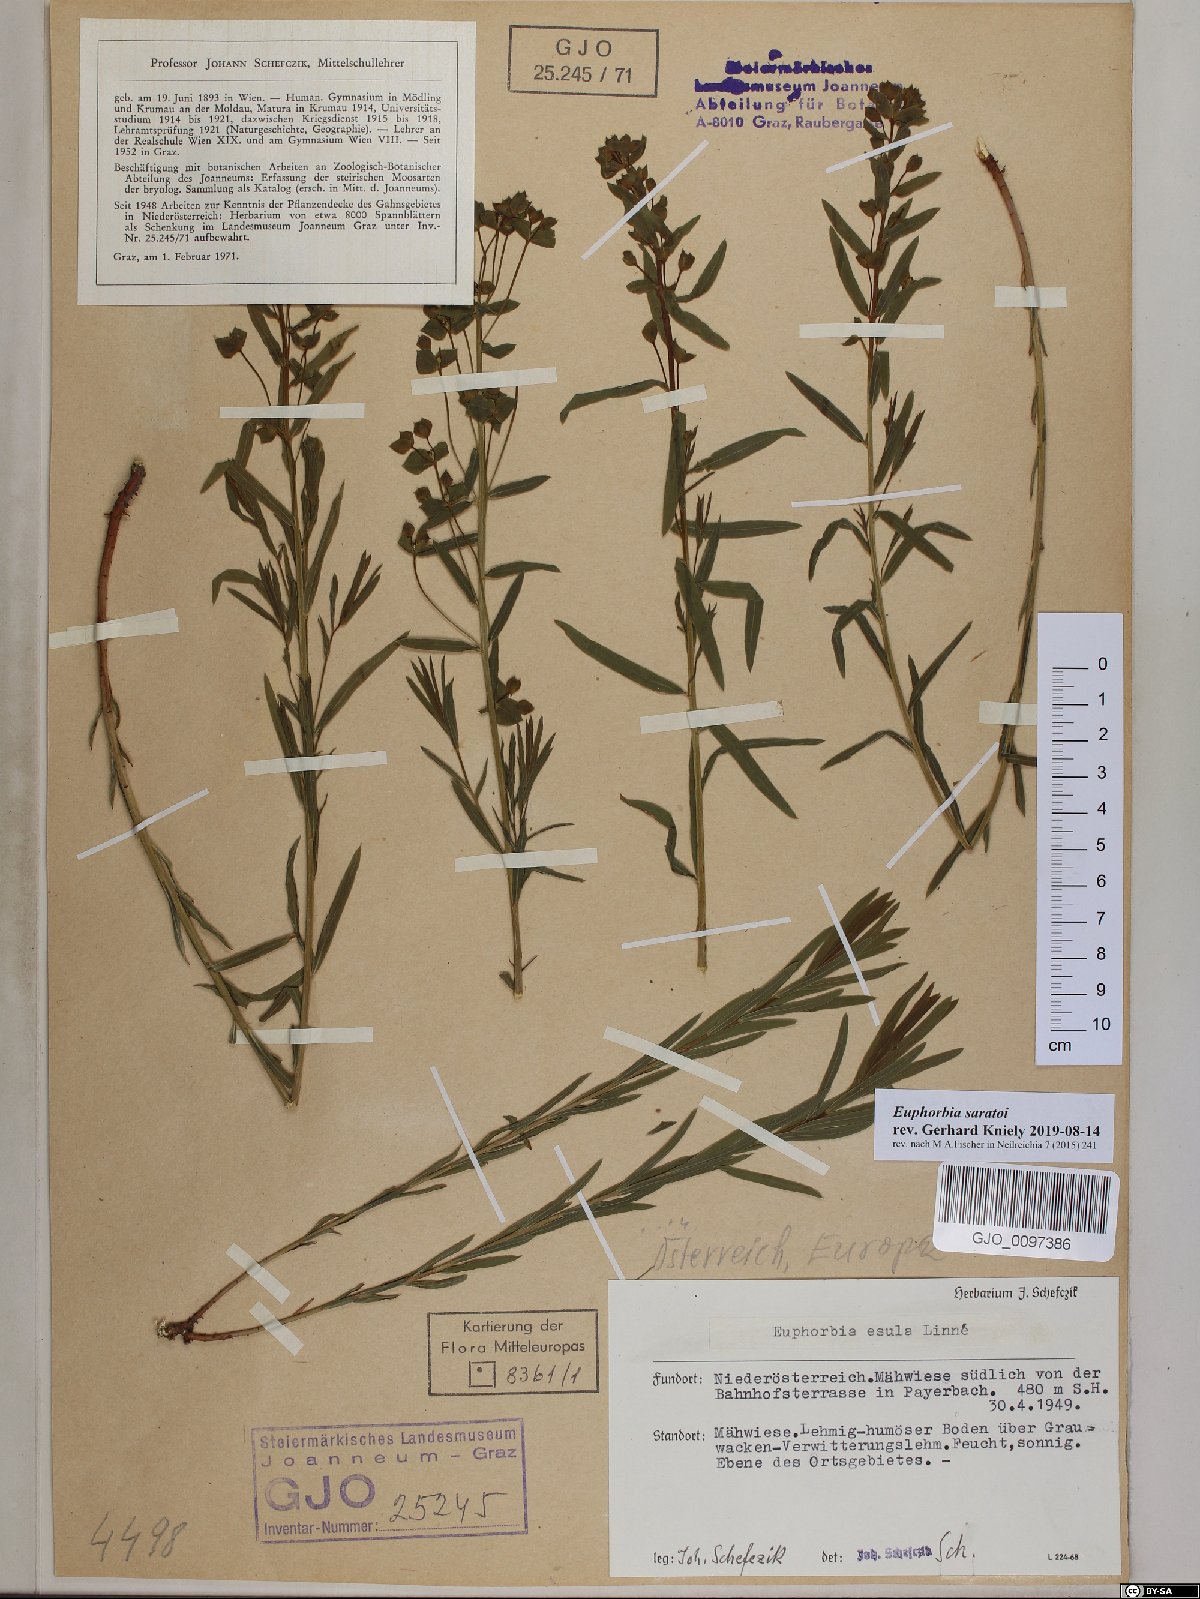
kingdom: Plantae
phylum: Tracheophyta
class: Magnoliopsida
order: Malpighiales
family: Euphorbiaceae
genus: Euphorbia
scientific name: Euphorbia saratoi
